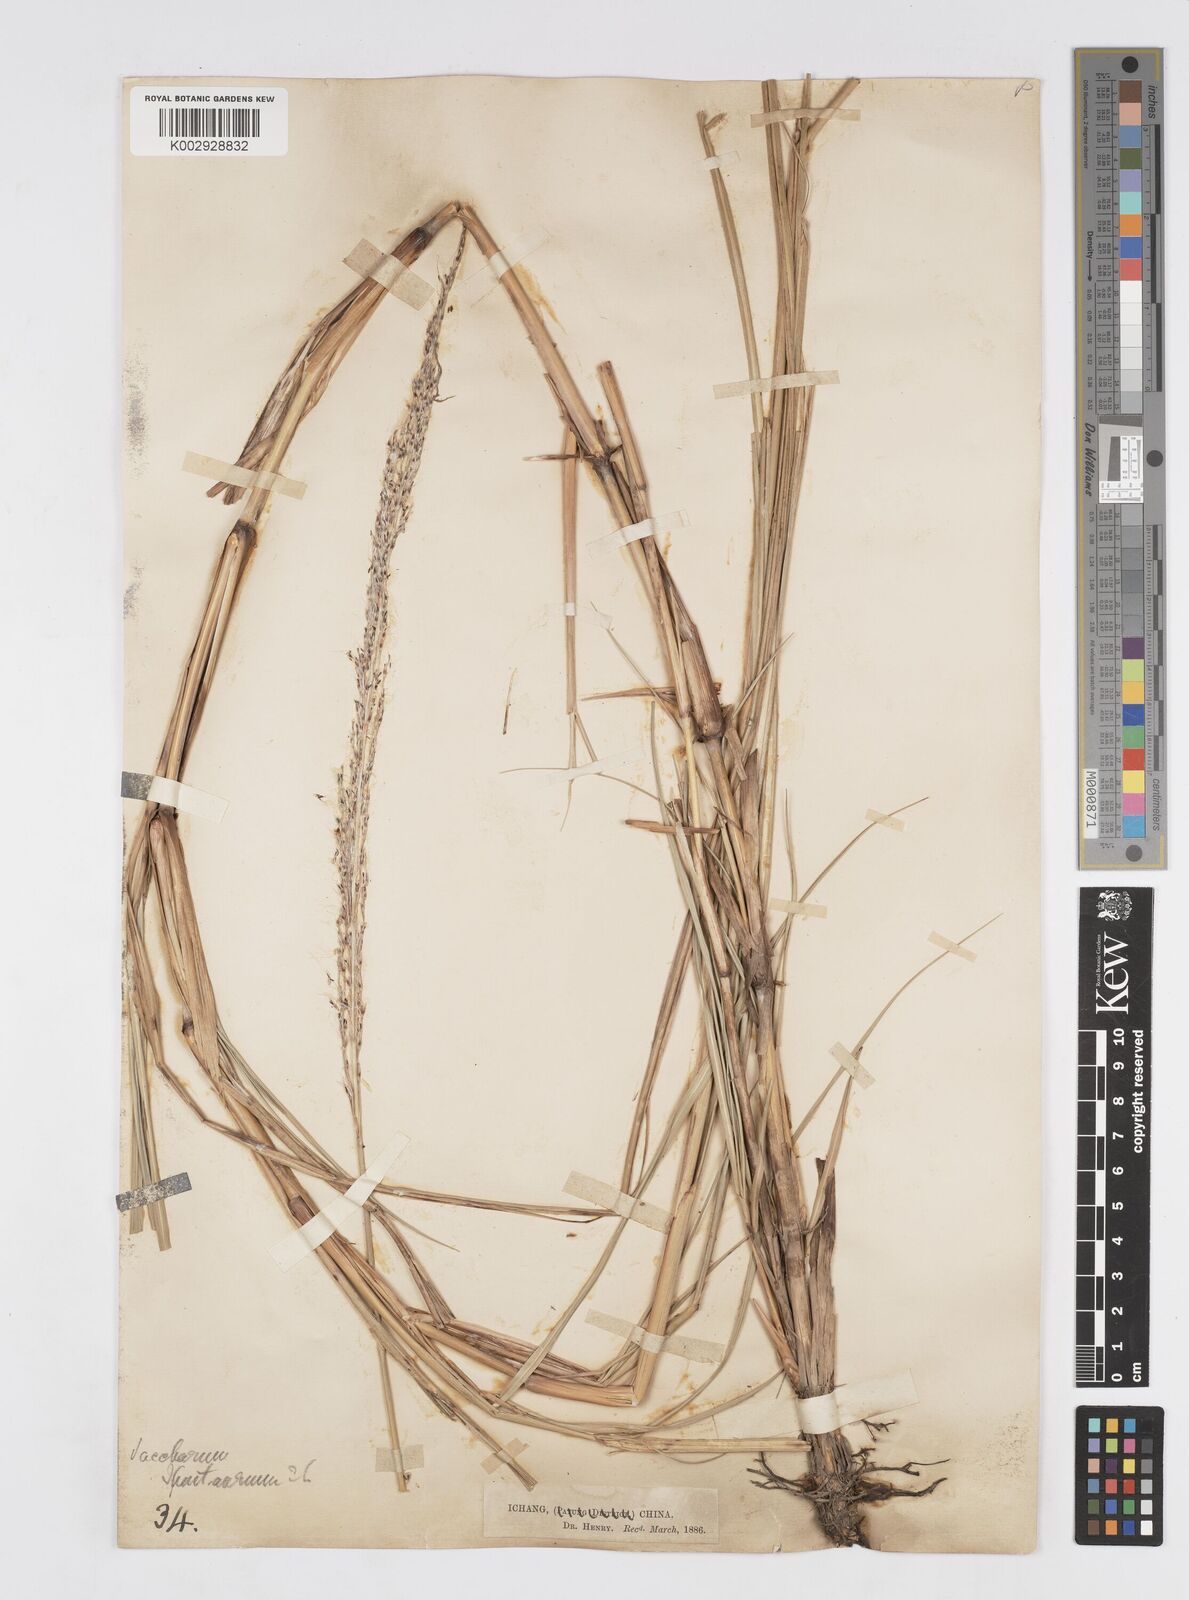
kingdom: Plantae
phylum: Tracheophyta
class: Liliopsida
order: Poales
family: Poaceae
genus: Saccharum
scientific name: Saccharum spontaneum
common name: Wild sugarcane
